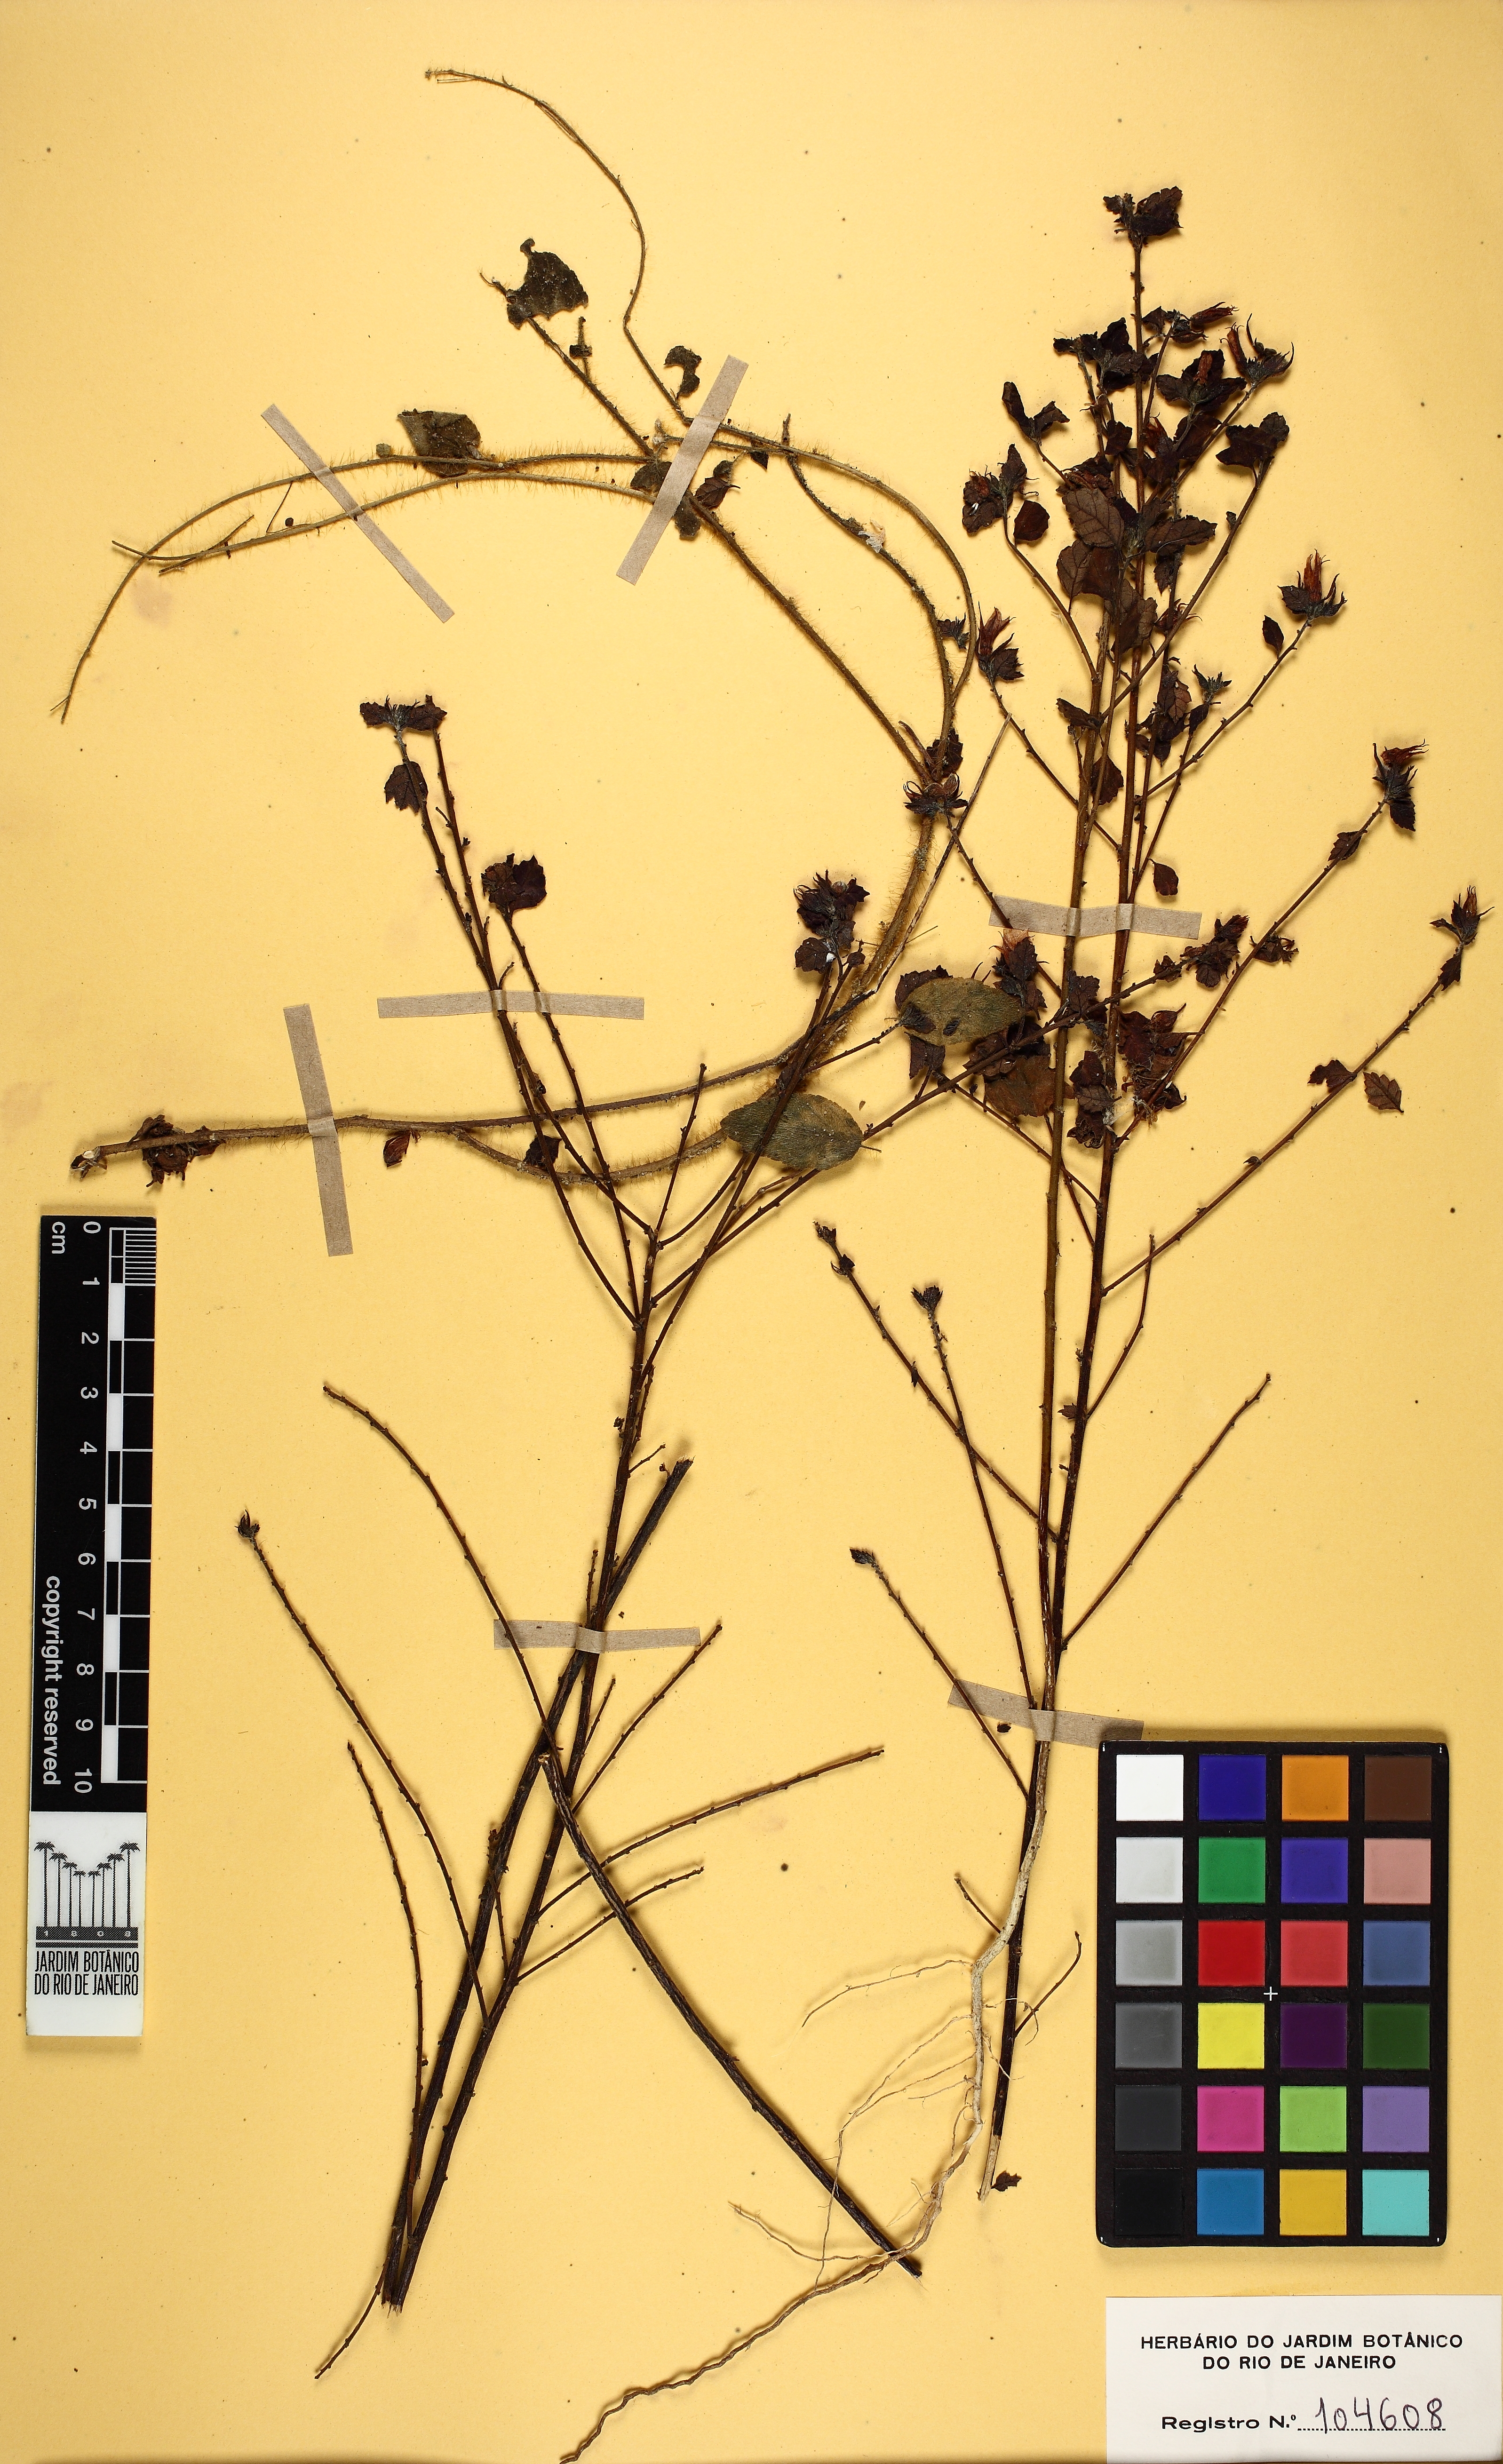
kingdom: Plantae
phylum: Tracheophyta
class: Magnoliopsida
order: Malpighiales
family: Turneraceae
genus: Turnera
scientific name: Turnera chamaedrifolie
